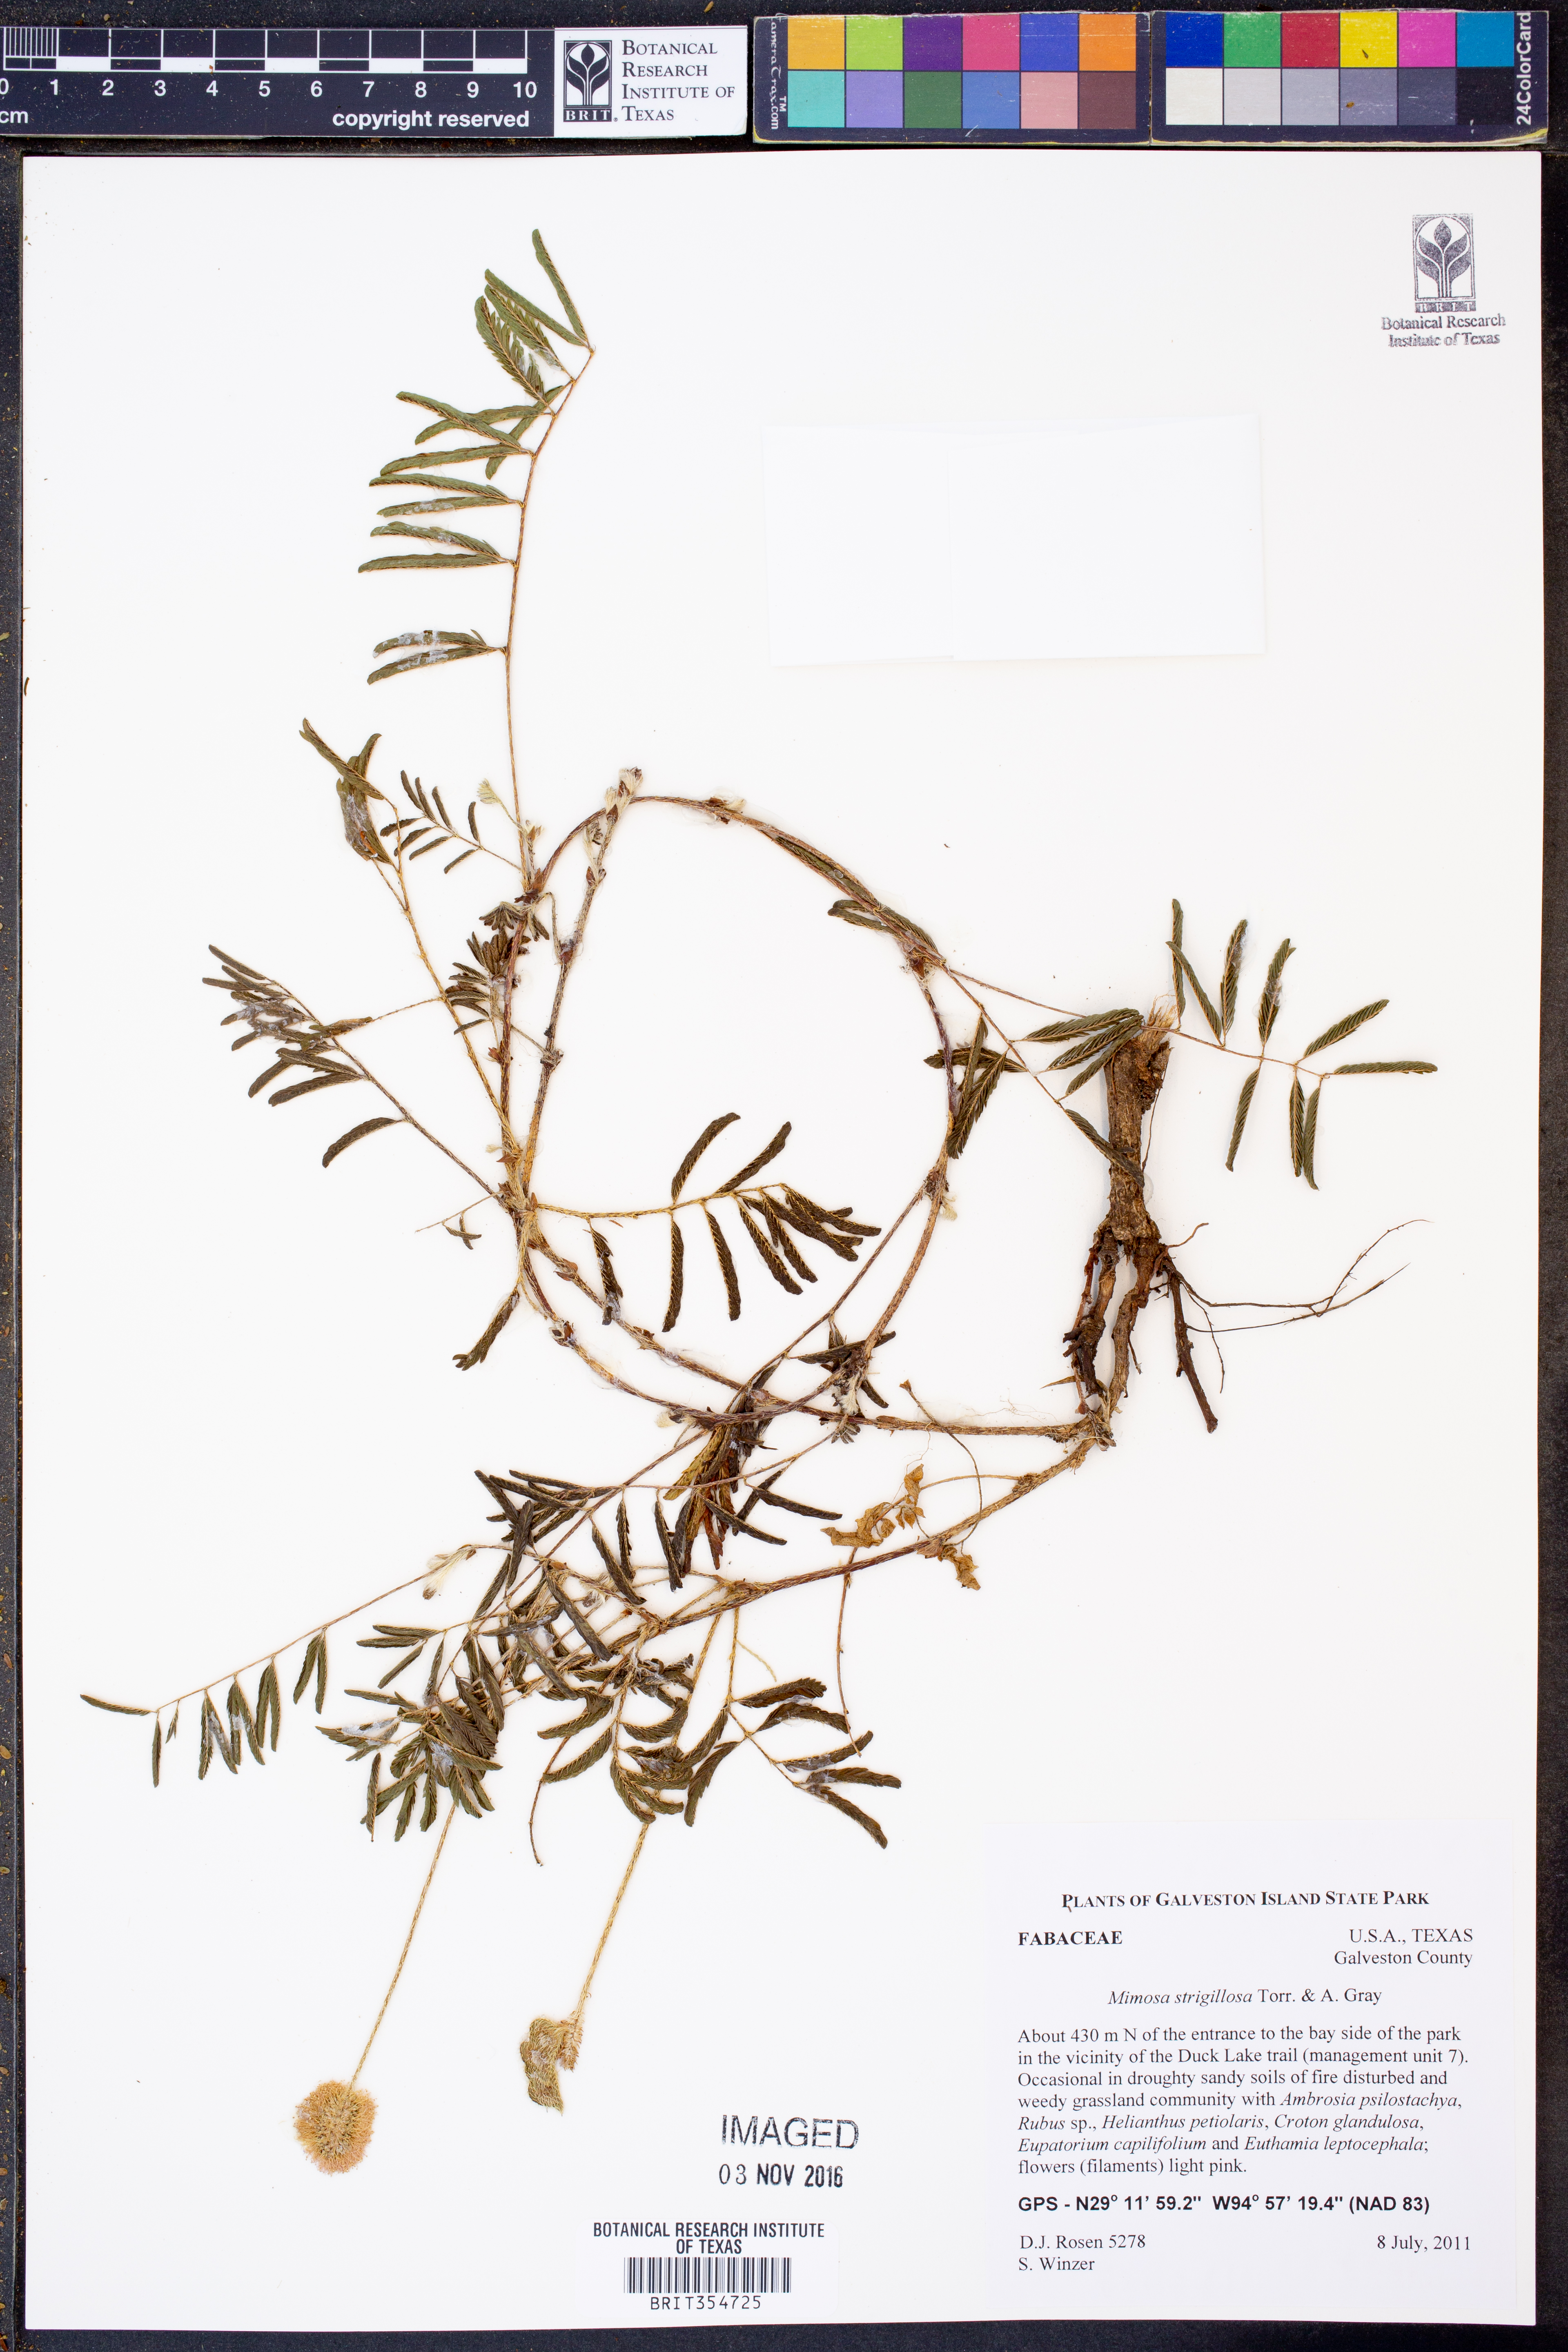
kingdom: Plantae
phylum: Tracheophyta
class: Magnoliopsida
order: Fabales
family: Fabaceae
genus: Mimosa
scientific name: Mimosa strigillosa
